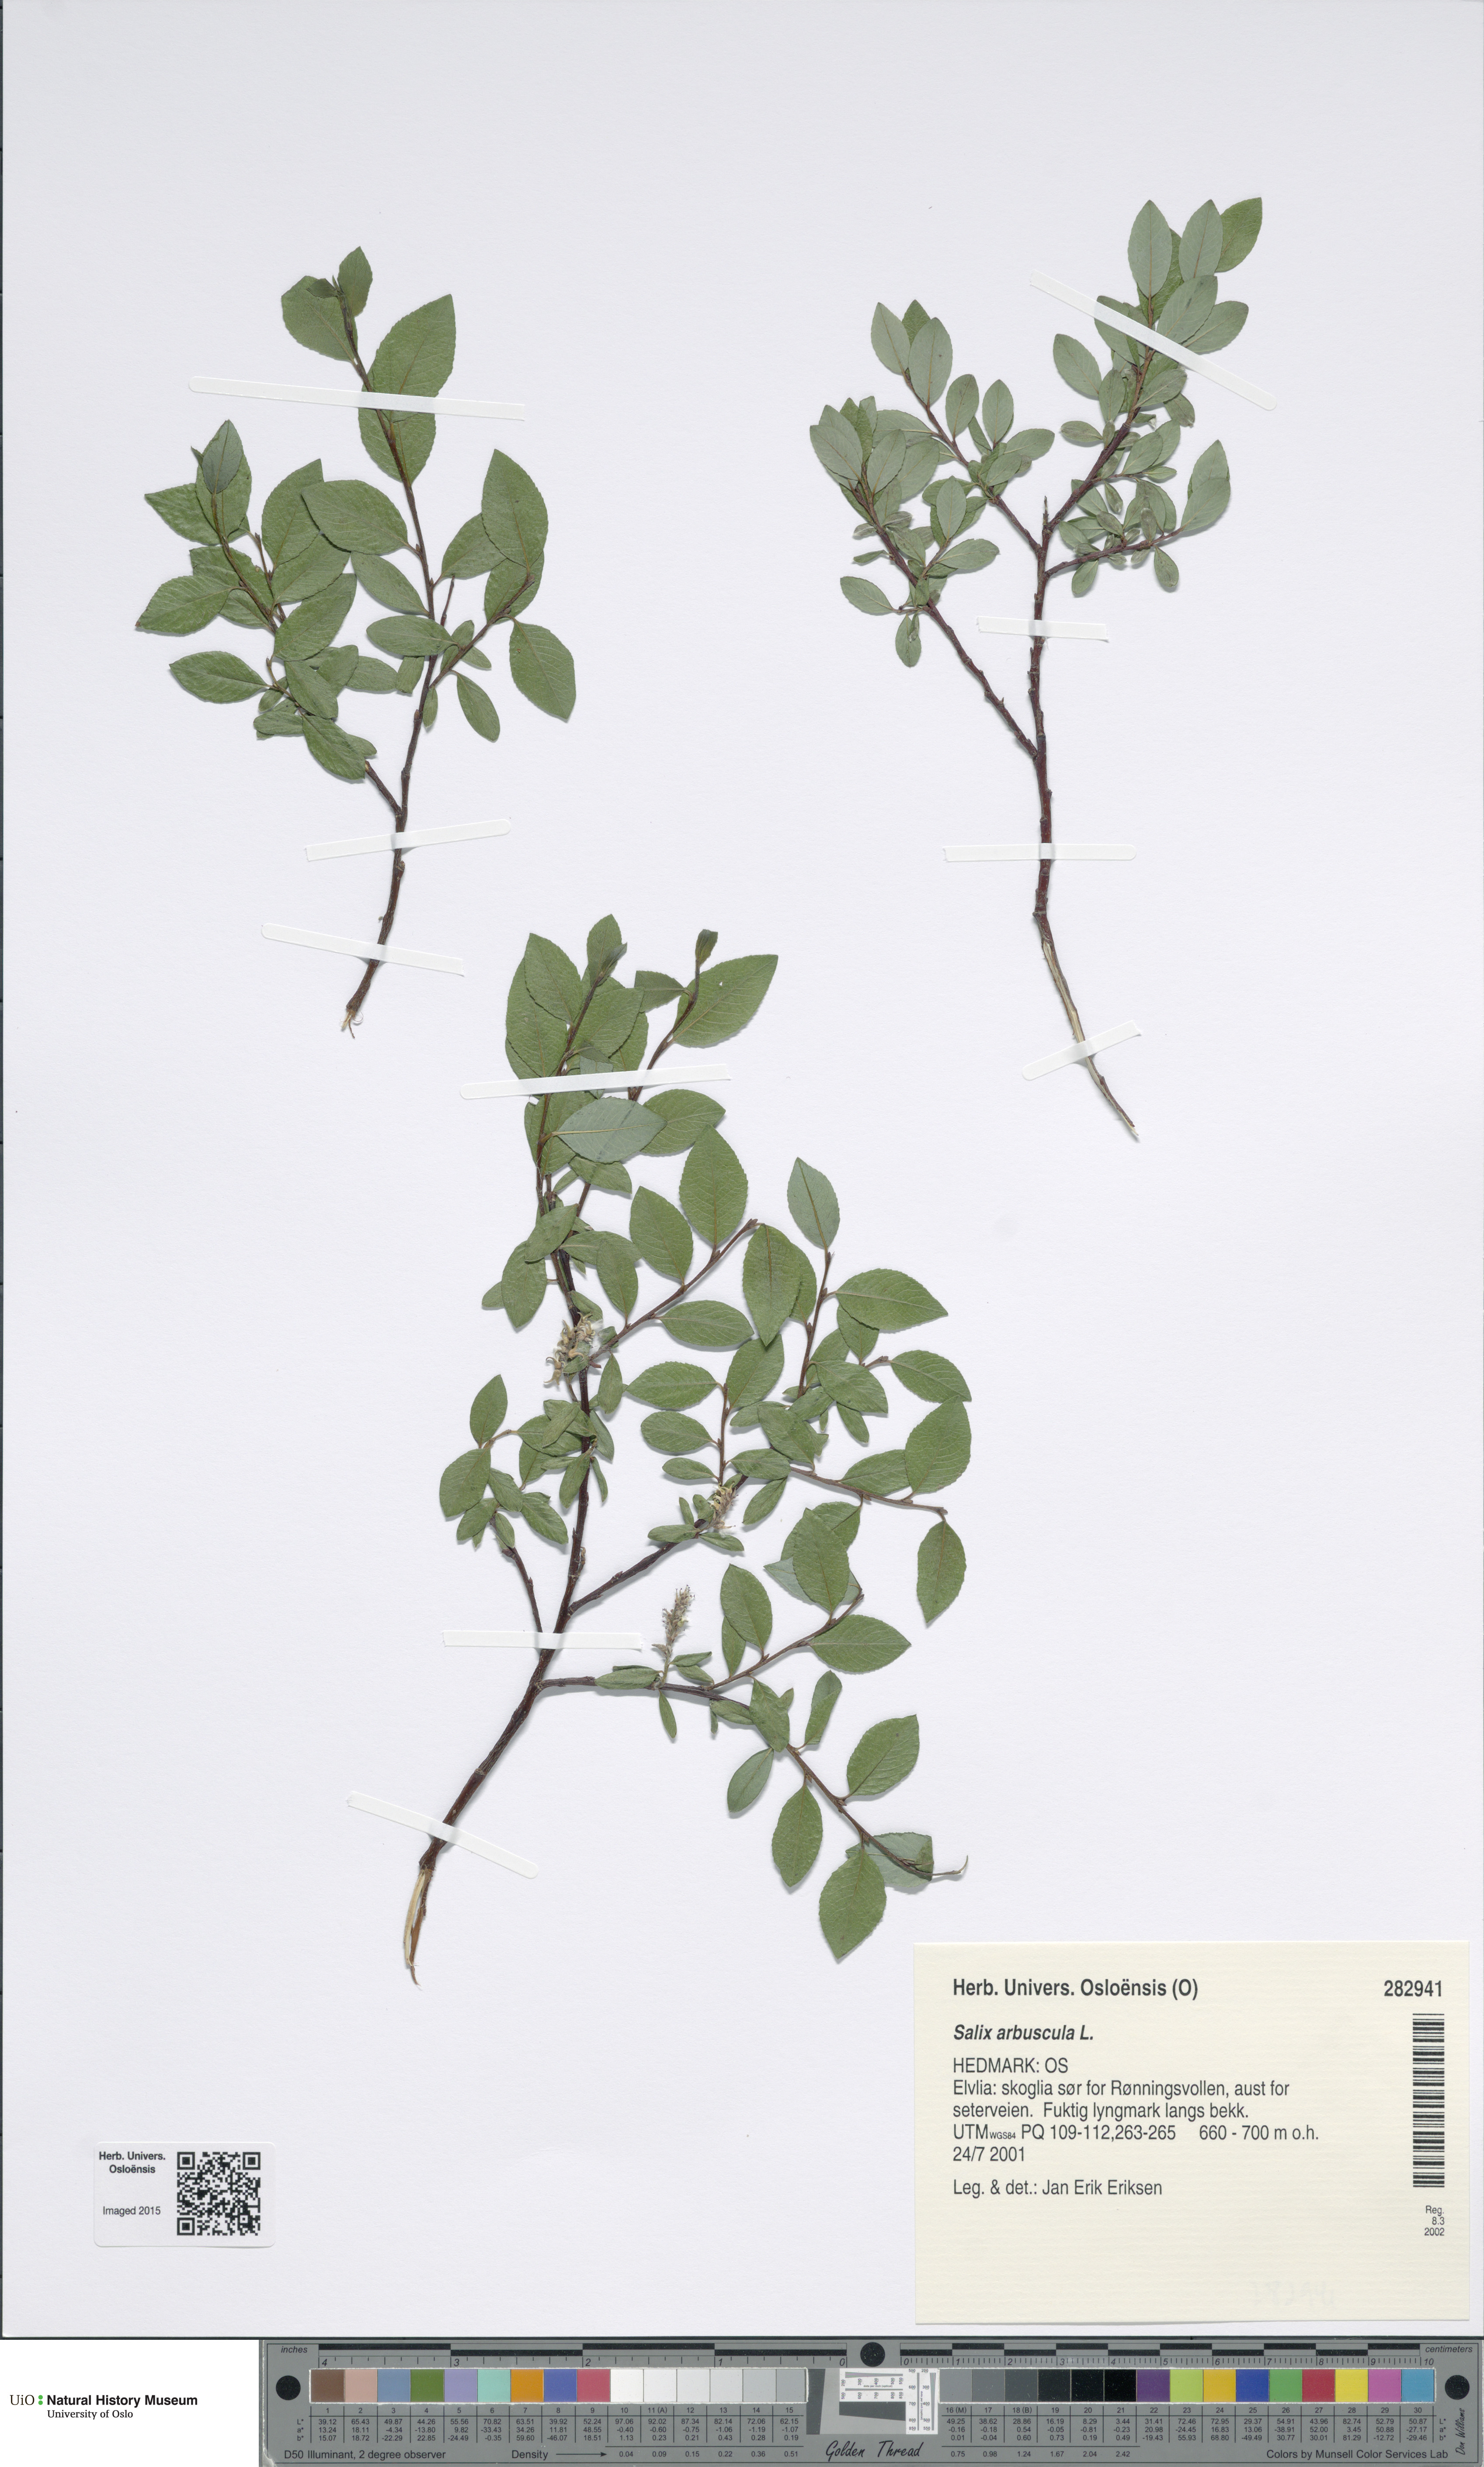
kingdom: Plantae
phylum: Tracheophyta
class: Magnoliopsida
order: Malpighiales
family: Salicaceae
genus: Salix
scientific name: Salix arbuscula
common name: Mountain willow
